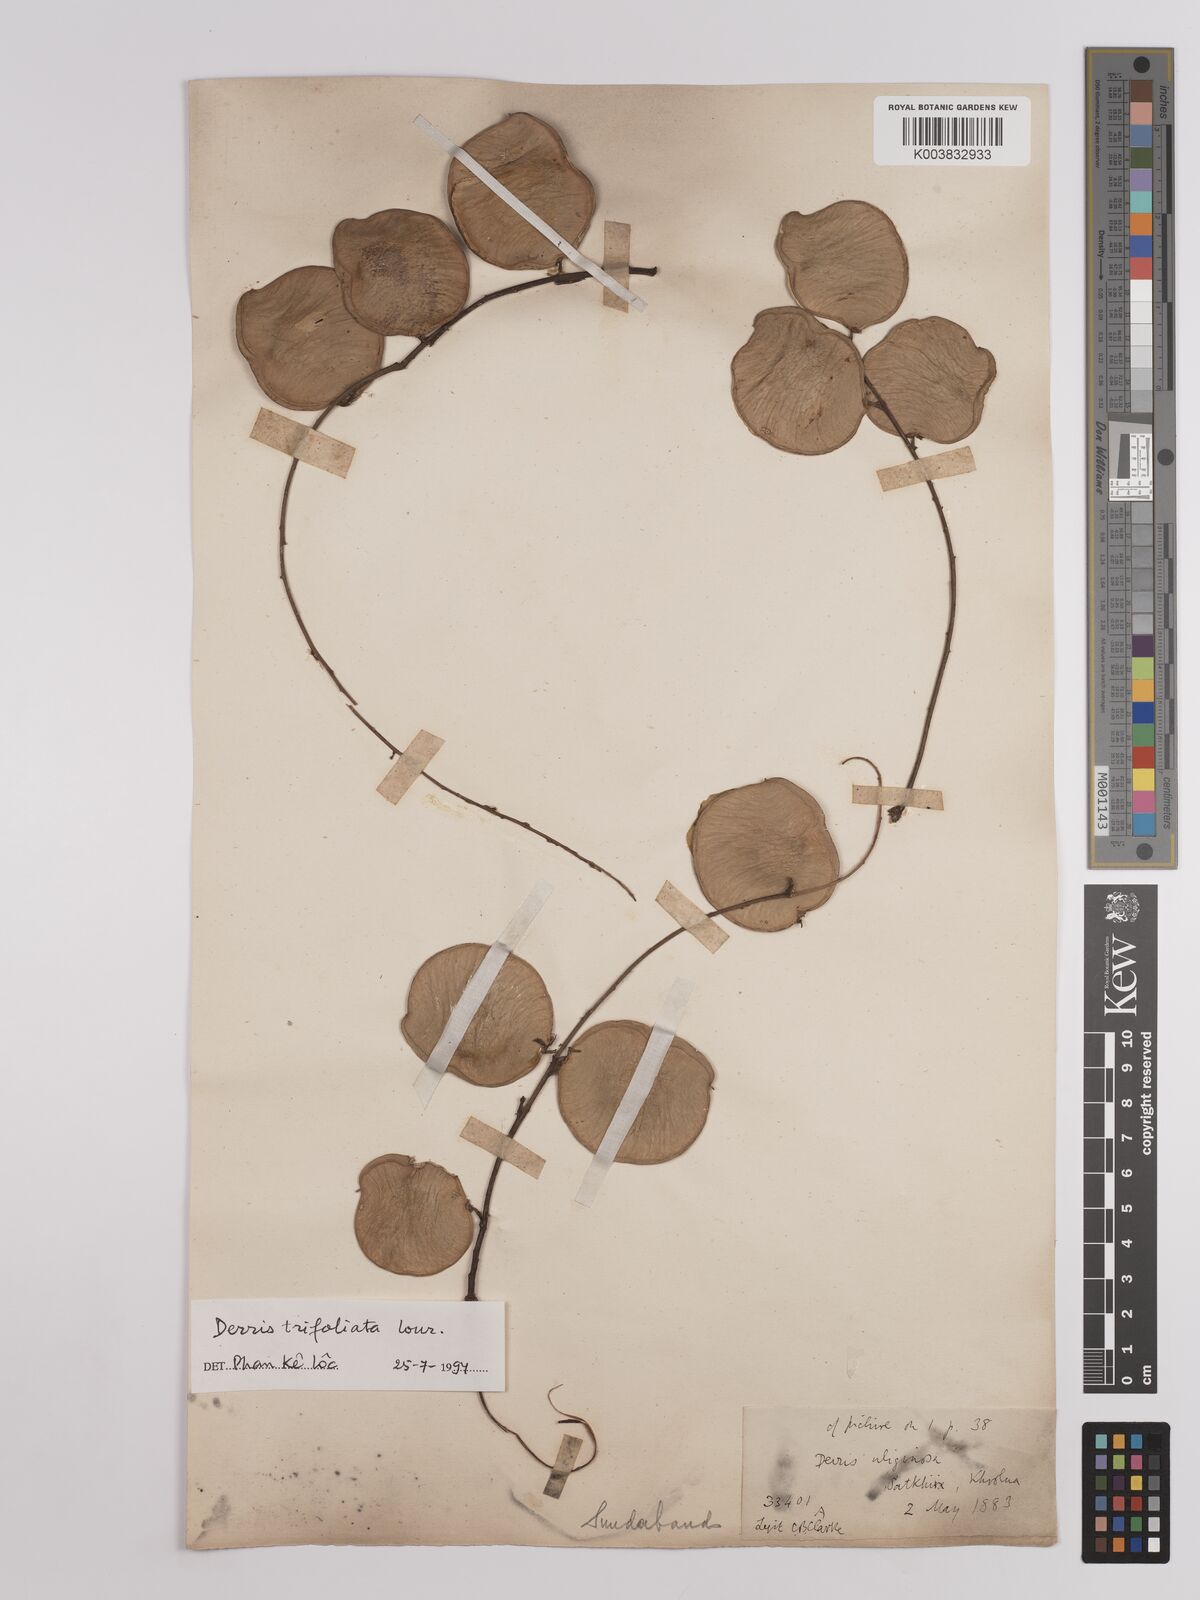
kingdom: Plantae
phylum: Tracheophyta
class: Magnoliopsida
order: Fabales
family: Fabaceae
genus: Derris
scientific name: Derris trifoliata
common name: Three-leaf derris
